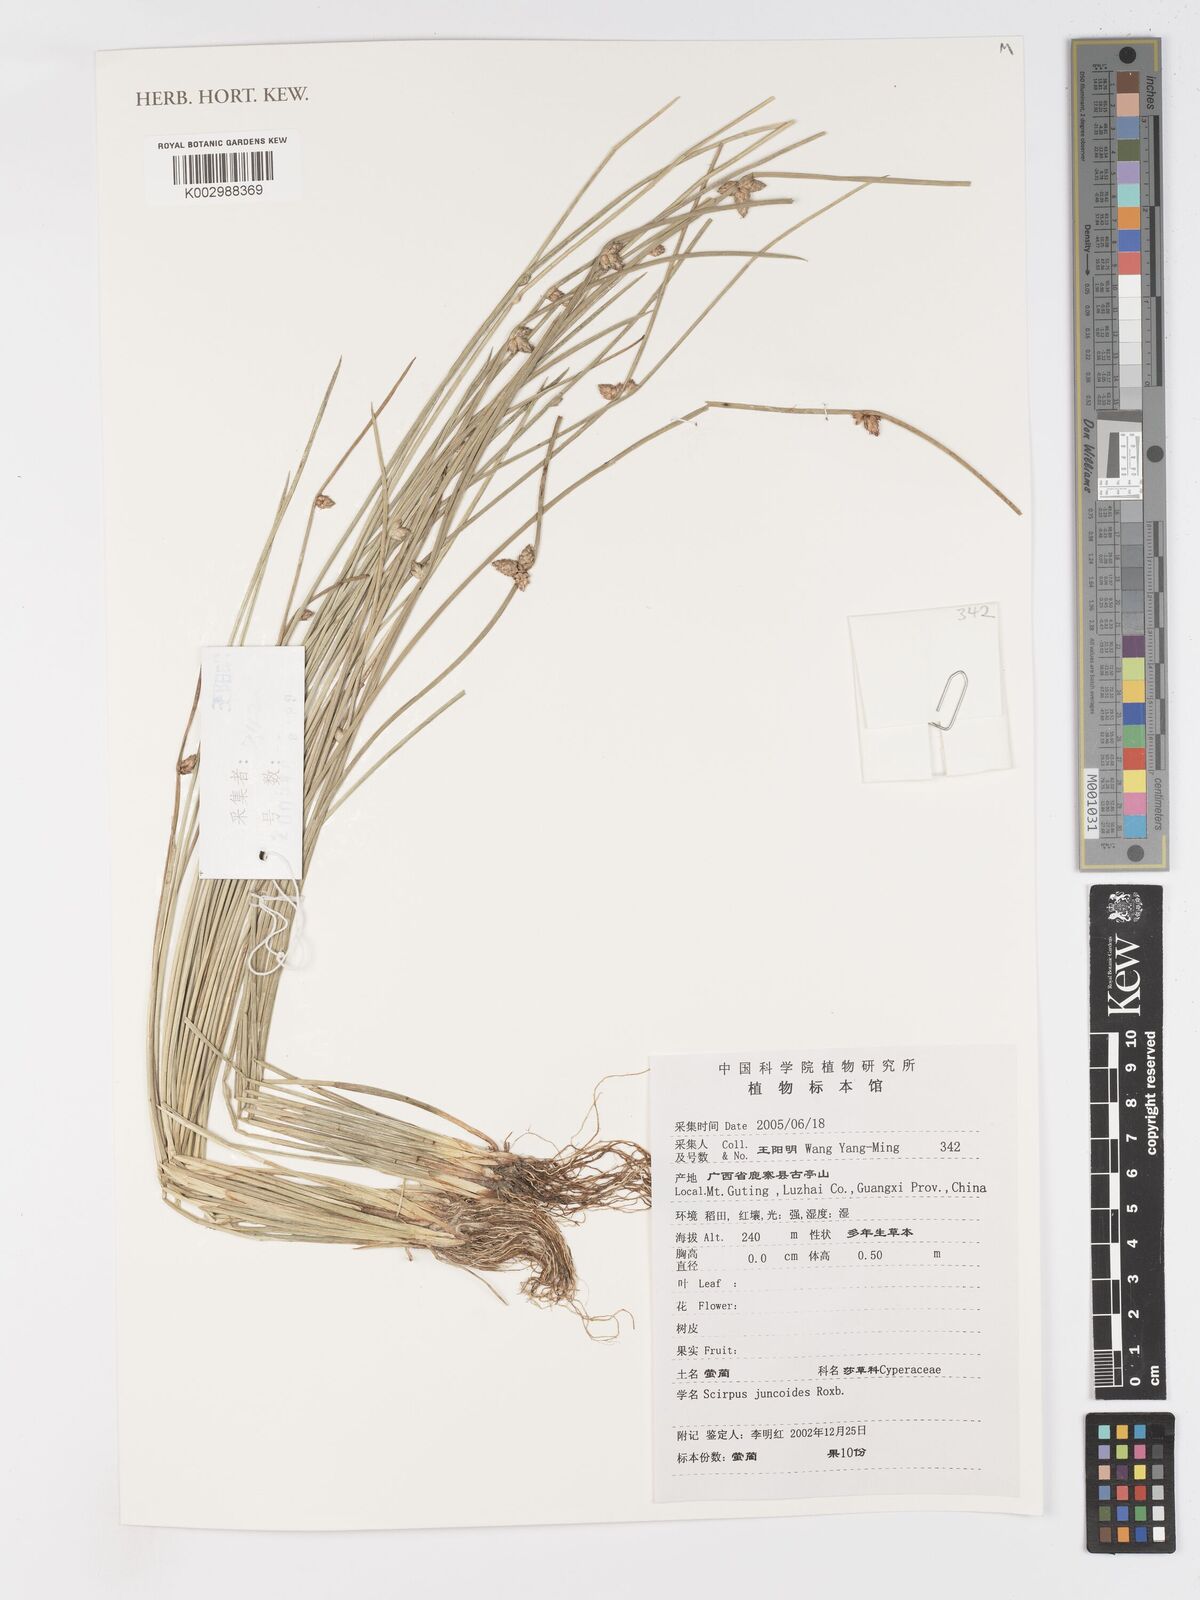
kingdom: Plantae
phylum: Tracheophyta
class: Liliopsida
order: Poales
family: Cyperaceae
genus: Schoenoplectiella
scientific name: Schoenoplectiella juncoides
